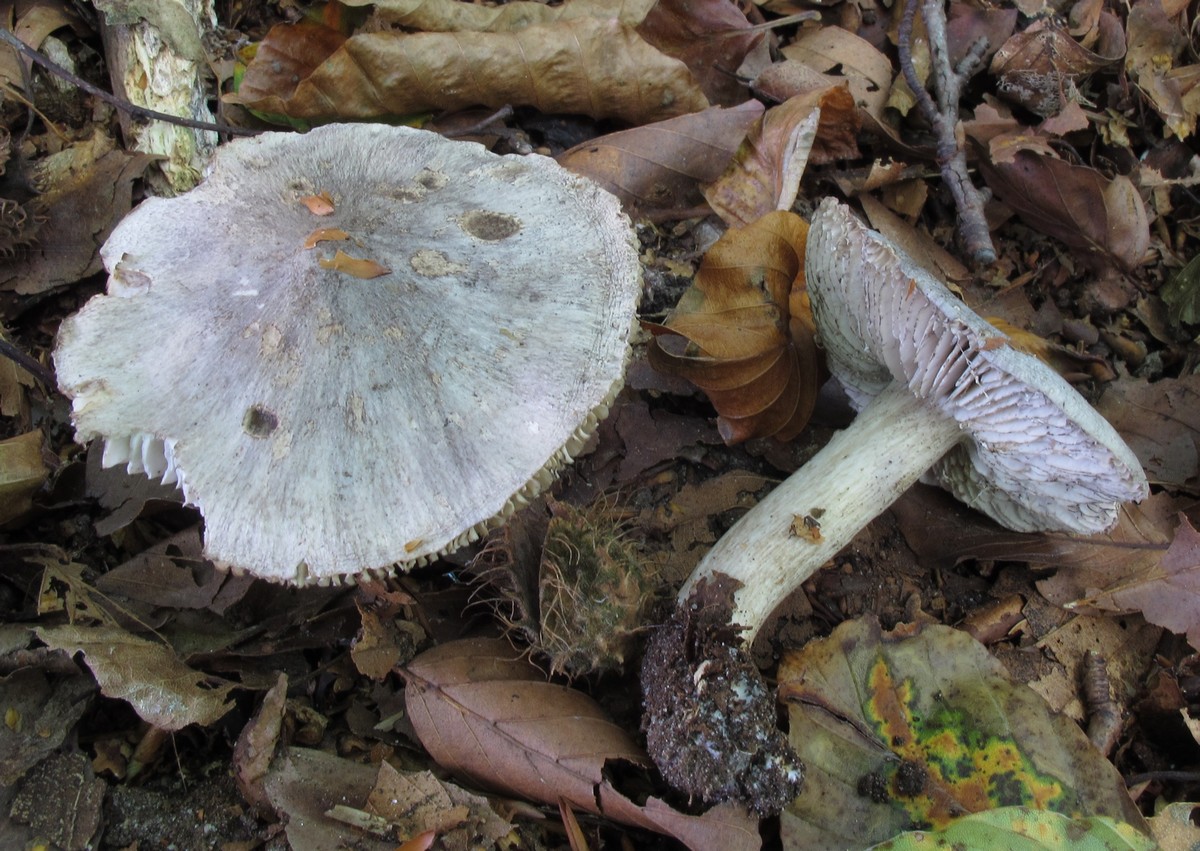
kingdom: Fungi
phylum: Basidiomycota
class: Agaricomycetes
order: Agaricales
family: Tricholomataceae
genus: Tricholoma
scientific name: Tricholoma sciodes
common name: stribet ridderhat
